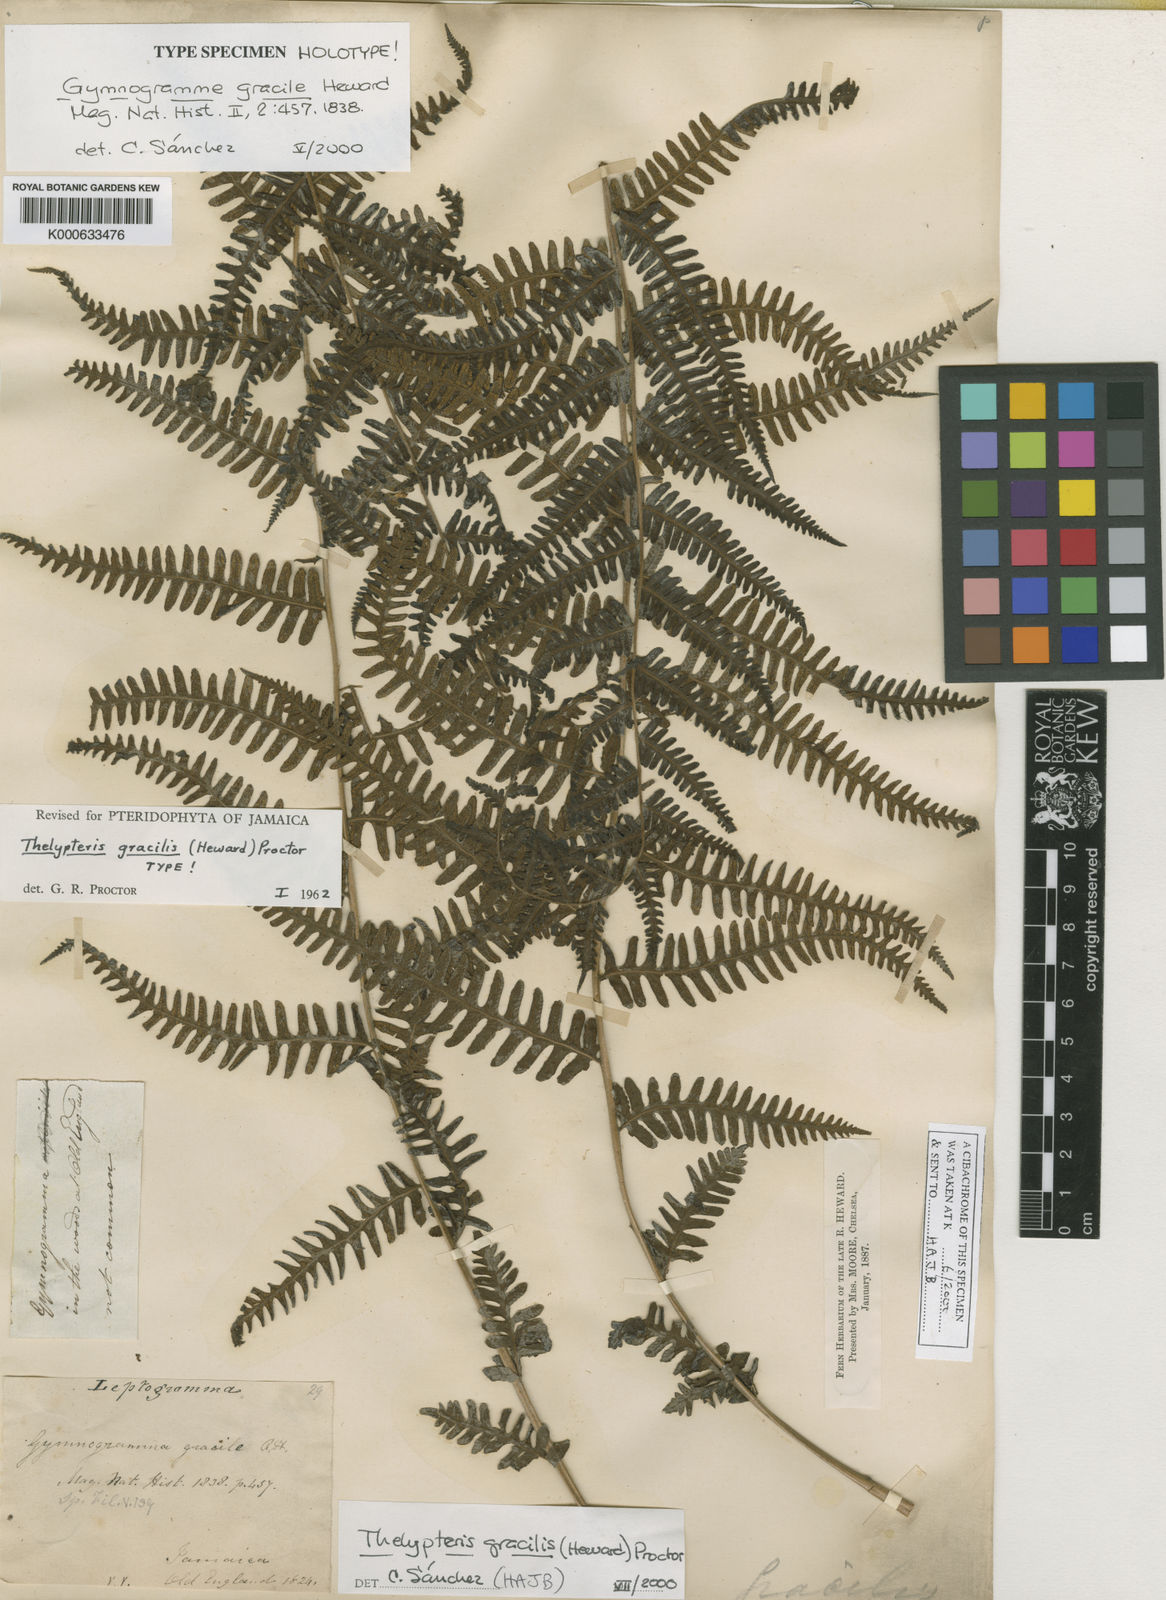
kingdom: Plantae
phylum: Tracheophyta
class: Polypodiopsida
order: Polypodiales
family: Thelypteridaceae
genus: Amauropelta
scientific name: Amauropelta gracilis
